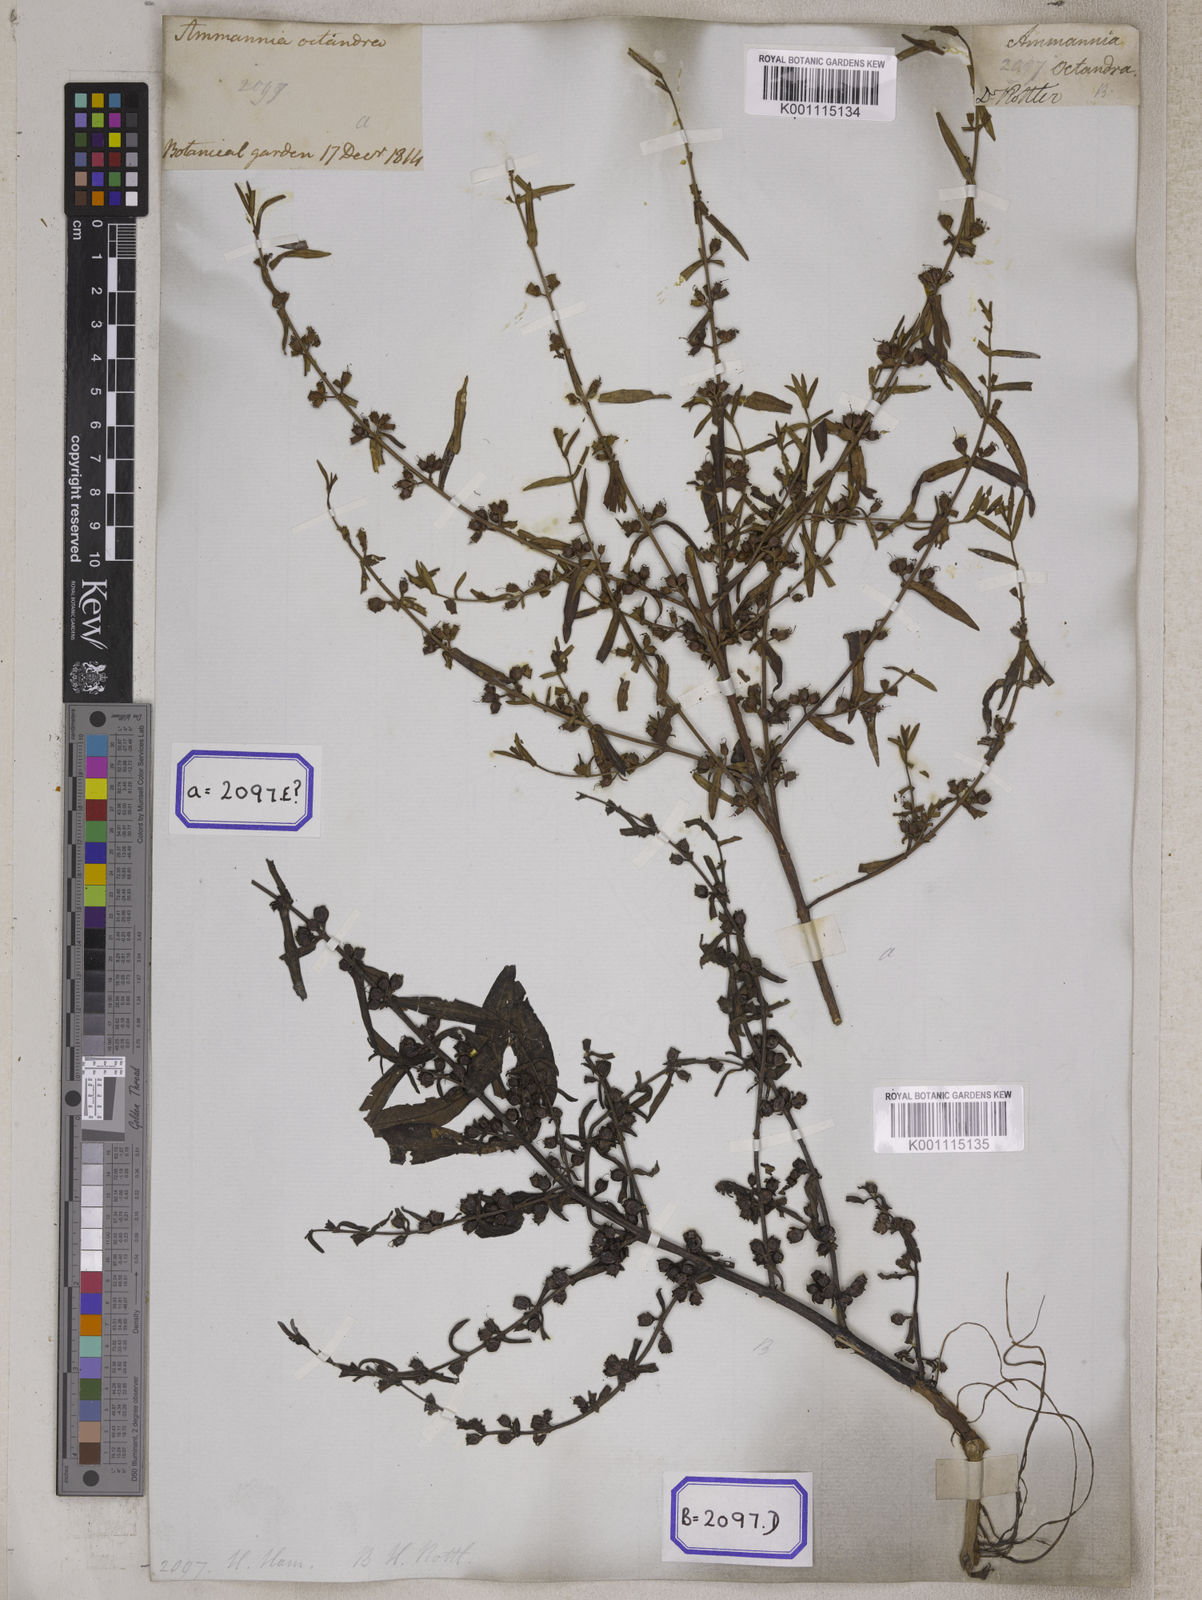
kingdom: Plantae
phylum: Tracheophyta
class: Magnoliopsida
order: Myrtales
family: Lythraceae
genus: Ammannia
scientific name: Ammannia octandra
